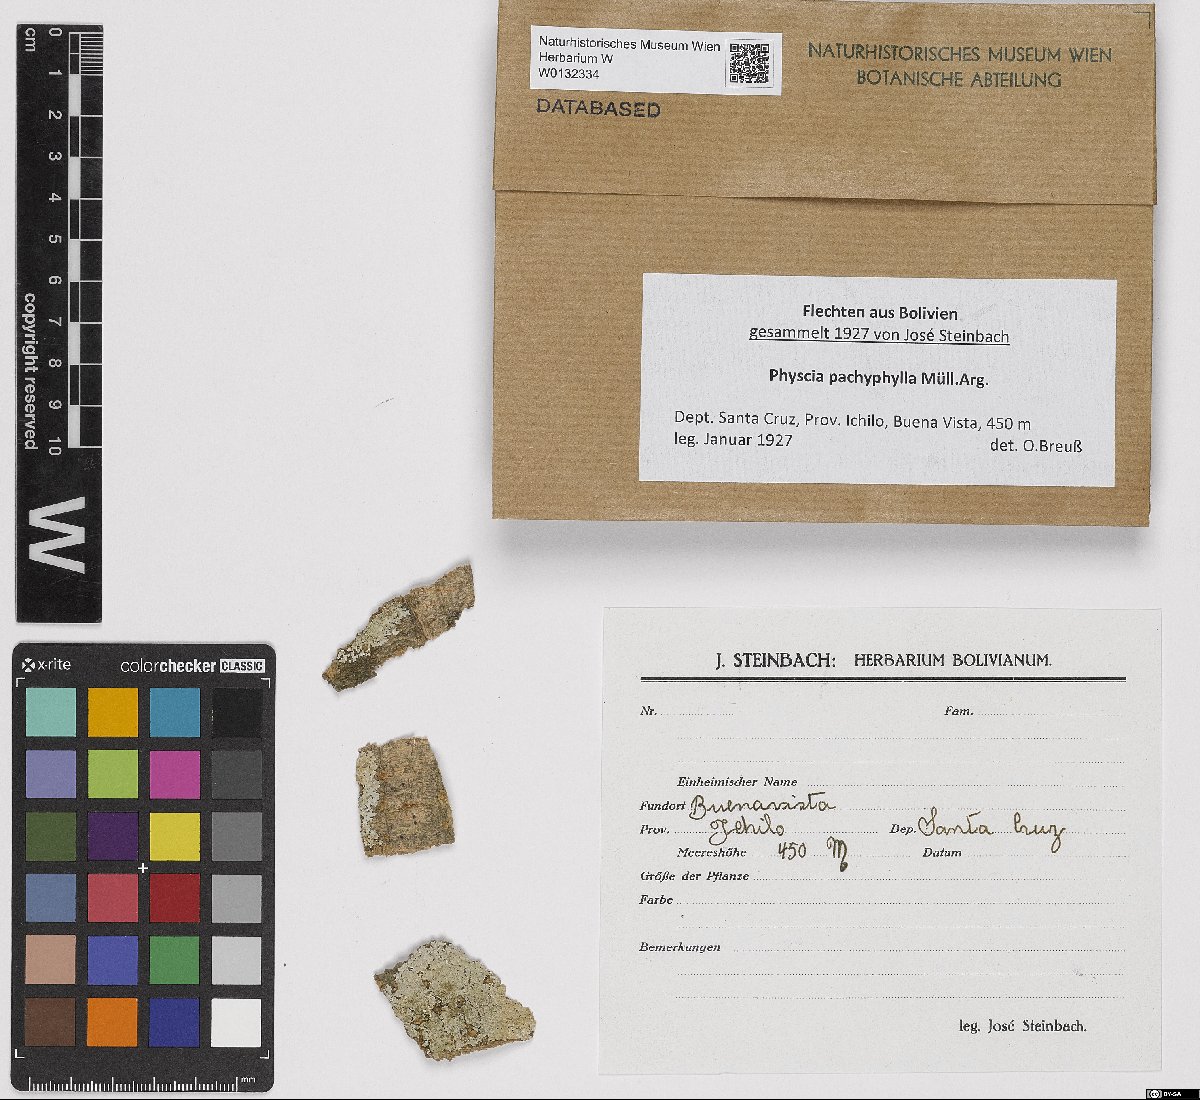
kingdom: Fungi
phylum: Ascomycota
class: Lecanoromycetes
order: Caliciales
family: Physciaceae
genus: Physcia
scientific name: Physcia pachyphylla
